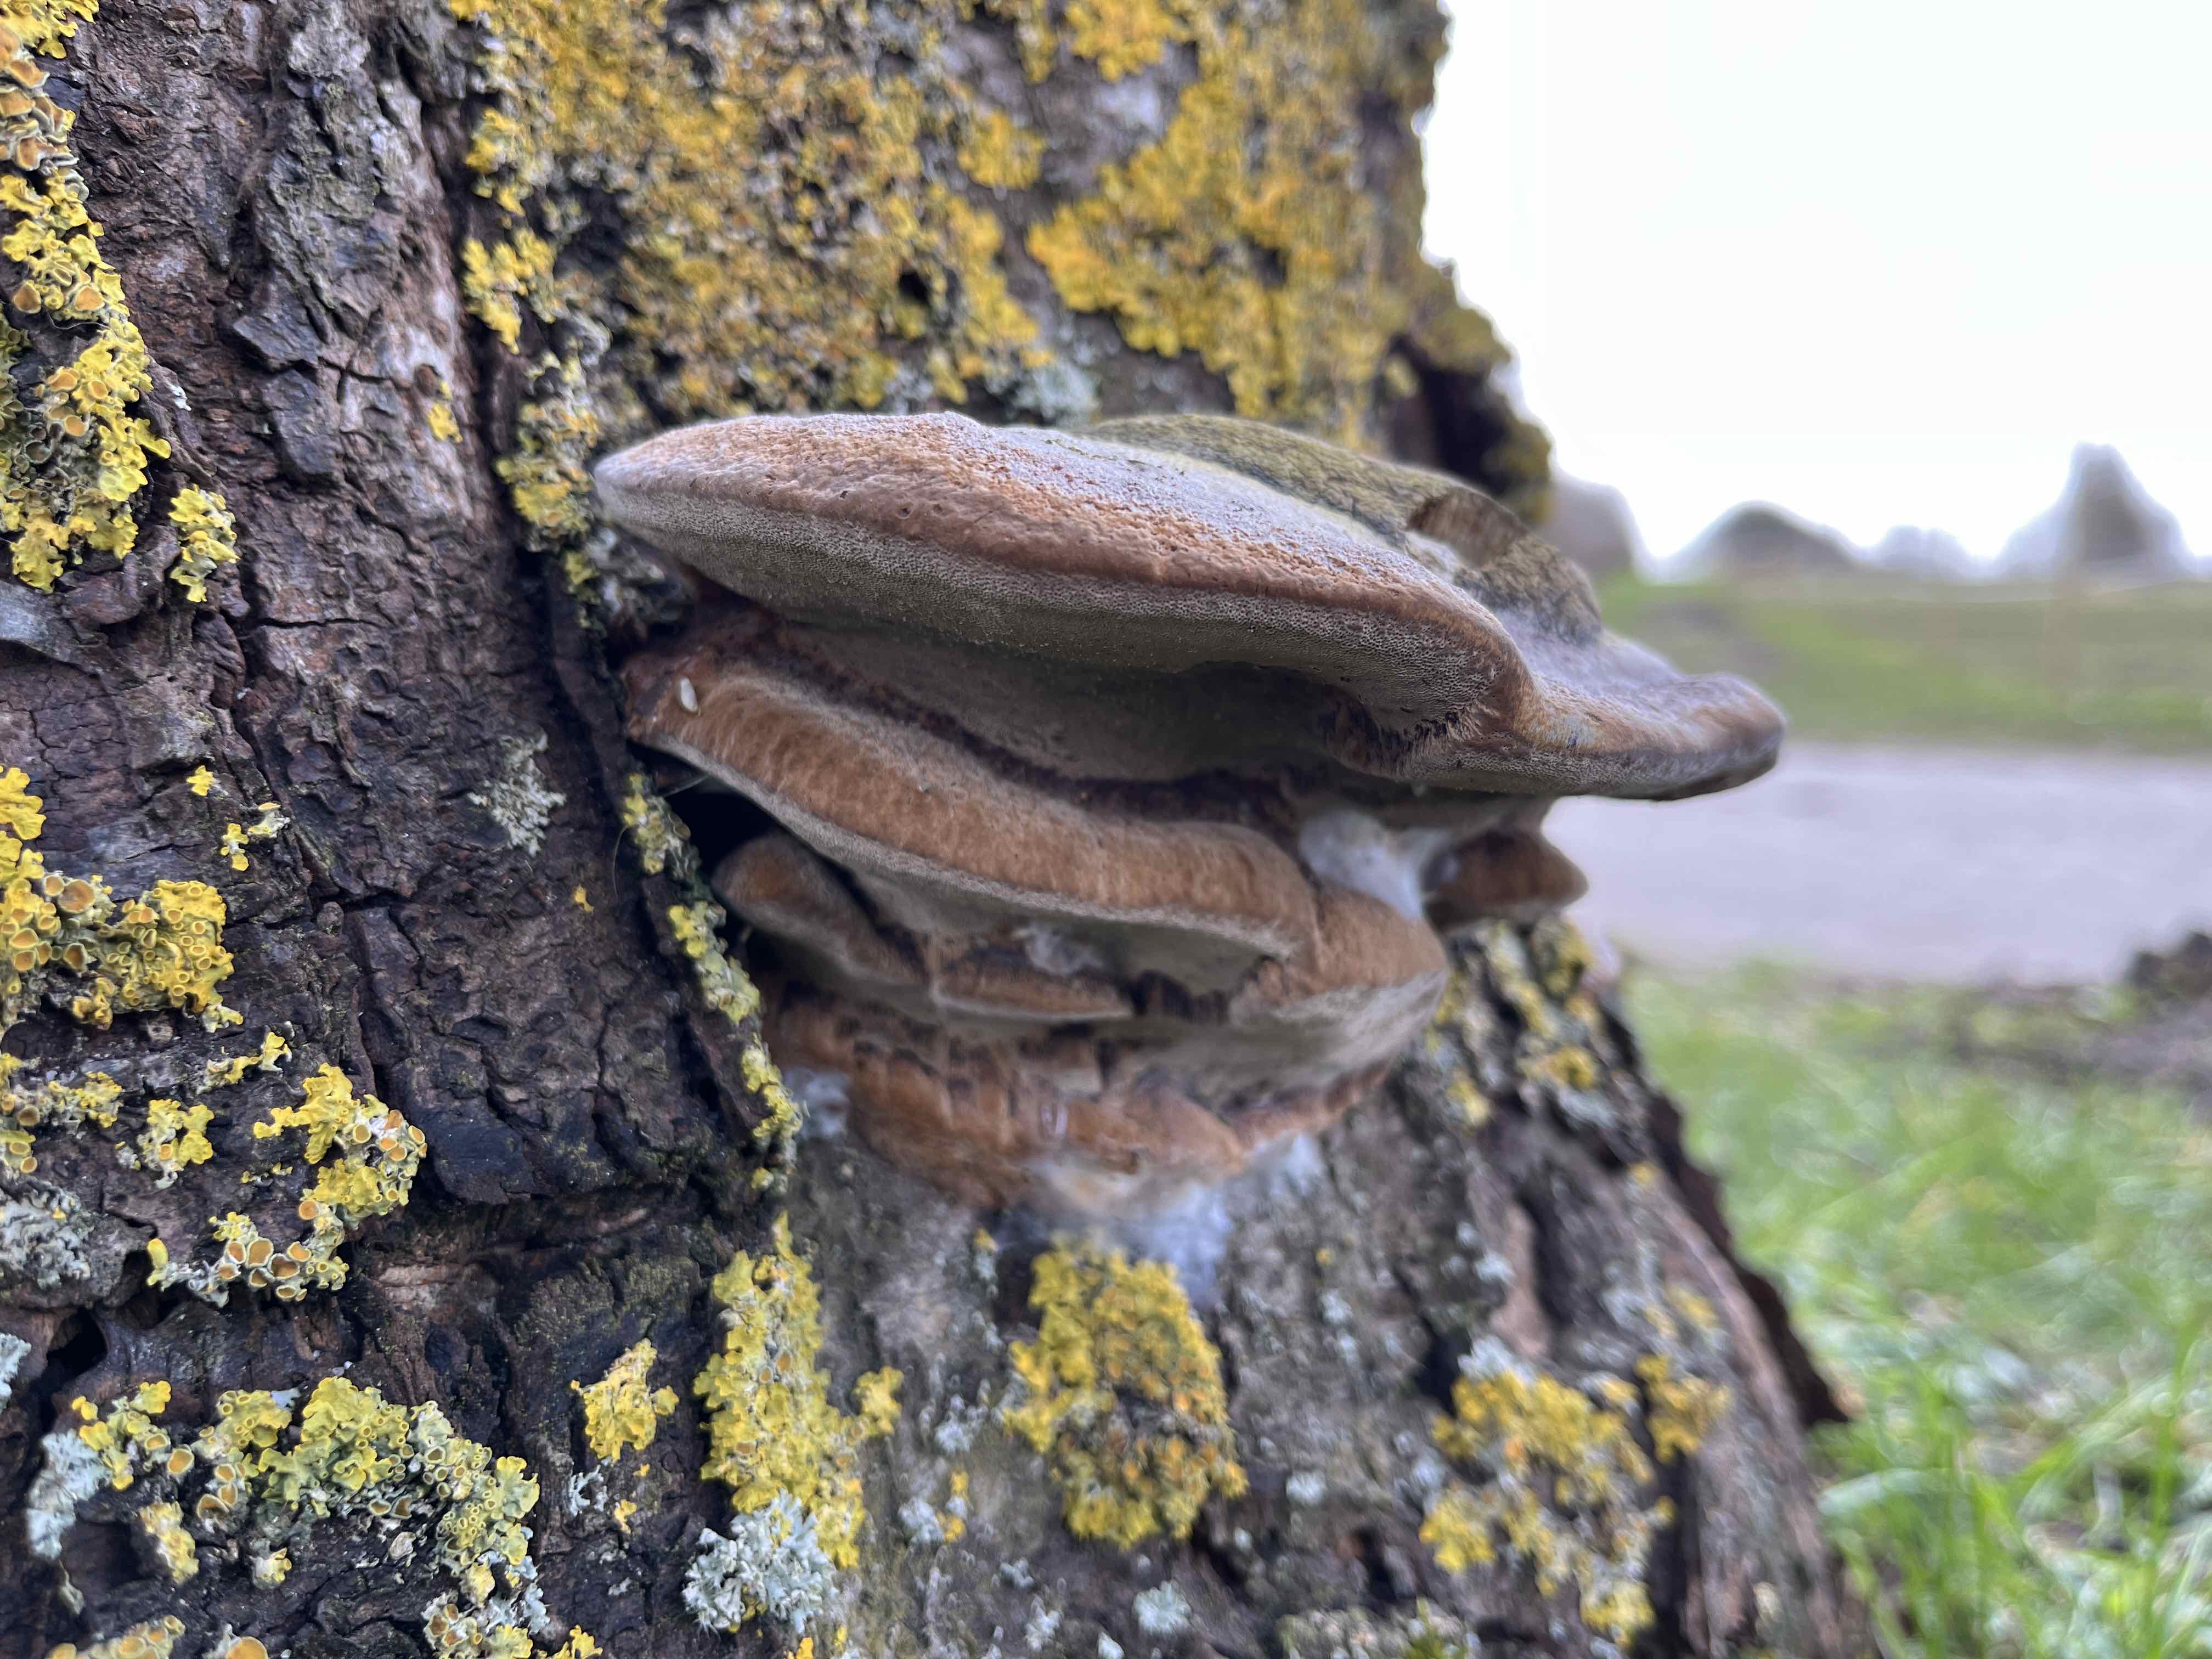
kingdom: Fungi
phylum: Basidiomycota
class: Agaricomycetes
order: Hymenochaetales
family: Hymenochaetaceae
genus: Phellinus
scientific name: Phellinus pomaceus
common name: blomme-ildporesvamp
